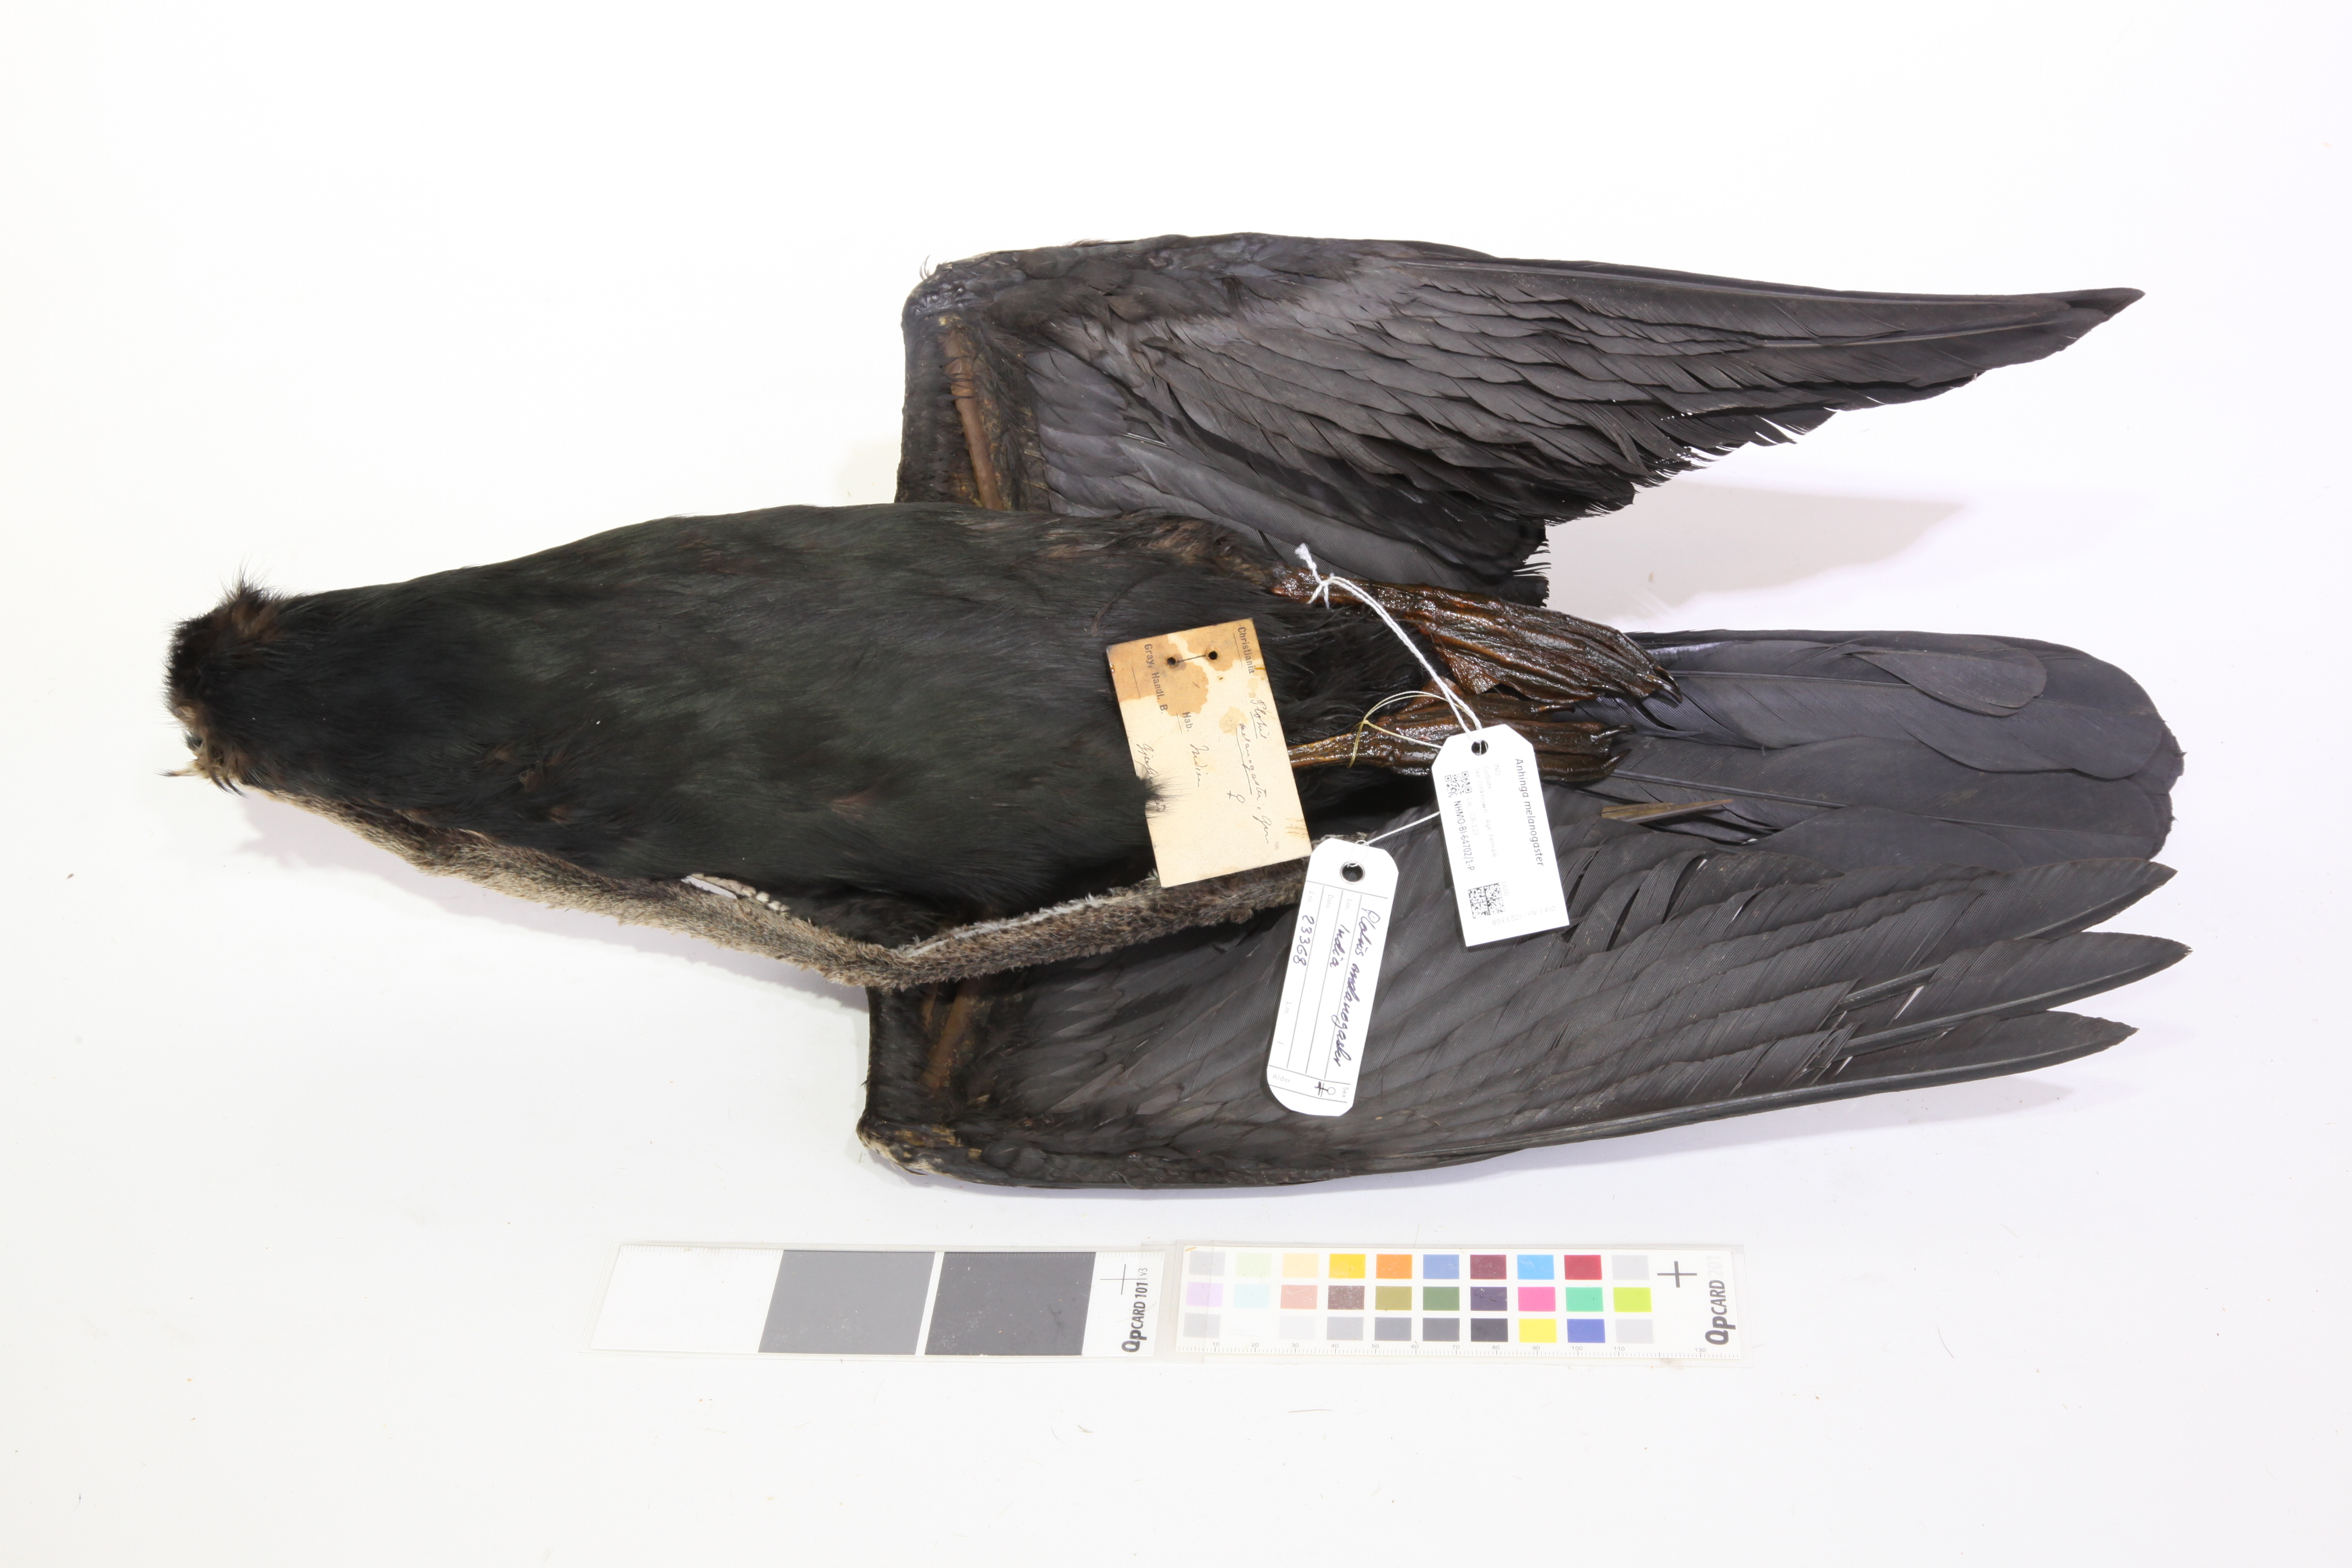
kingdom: Animalia
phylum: Chordata
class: Aves
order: Suliformes
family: Anhingidae
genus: Anhinga
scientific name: Anhinga melanogaster
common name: Oriental darter
